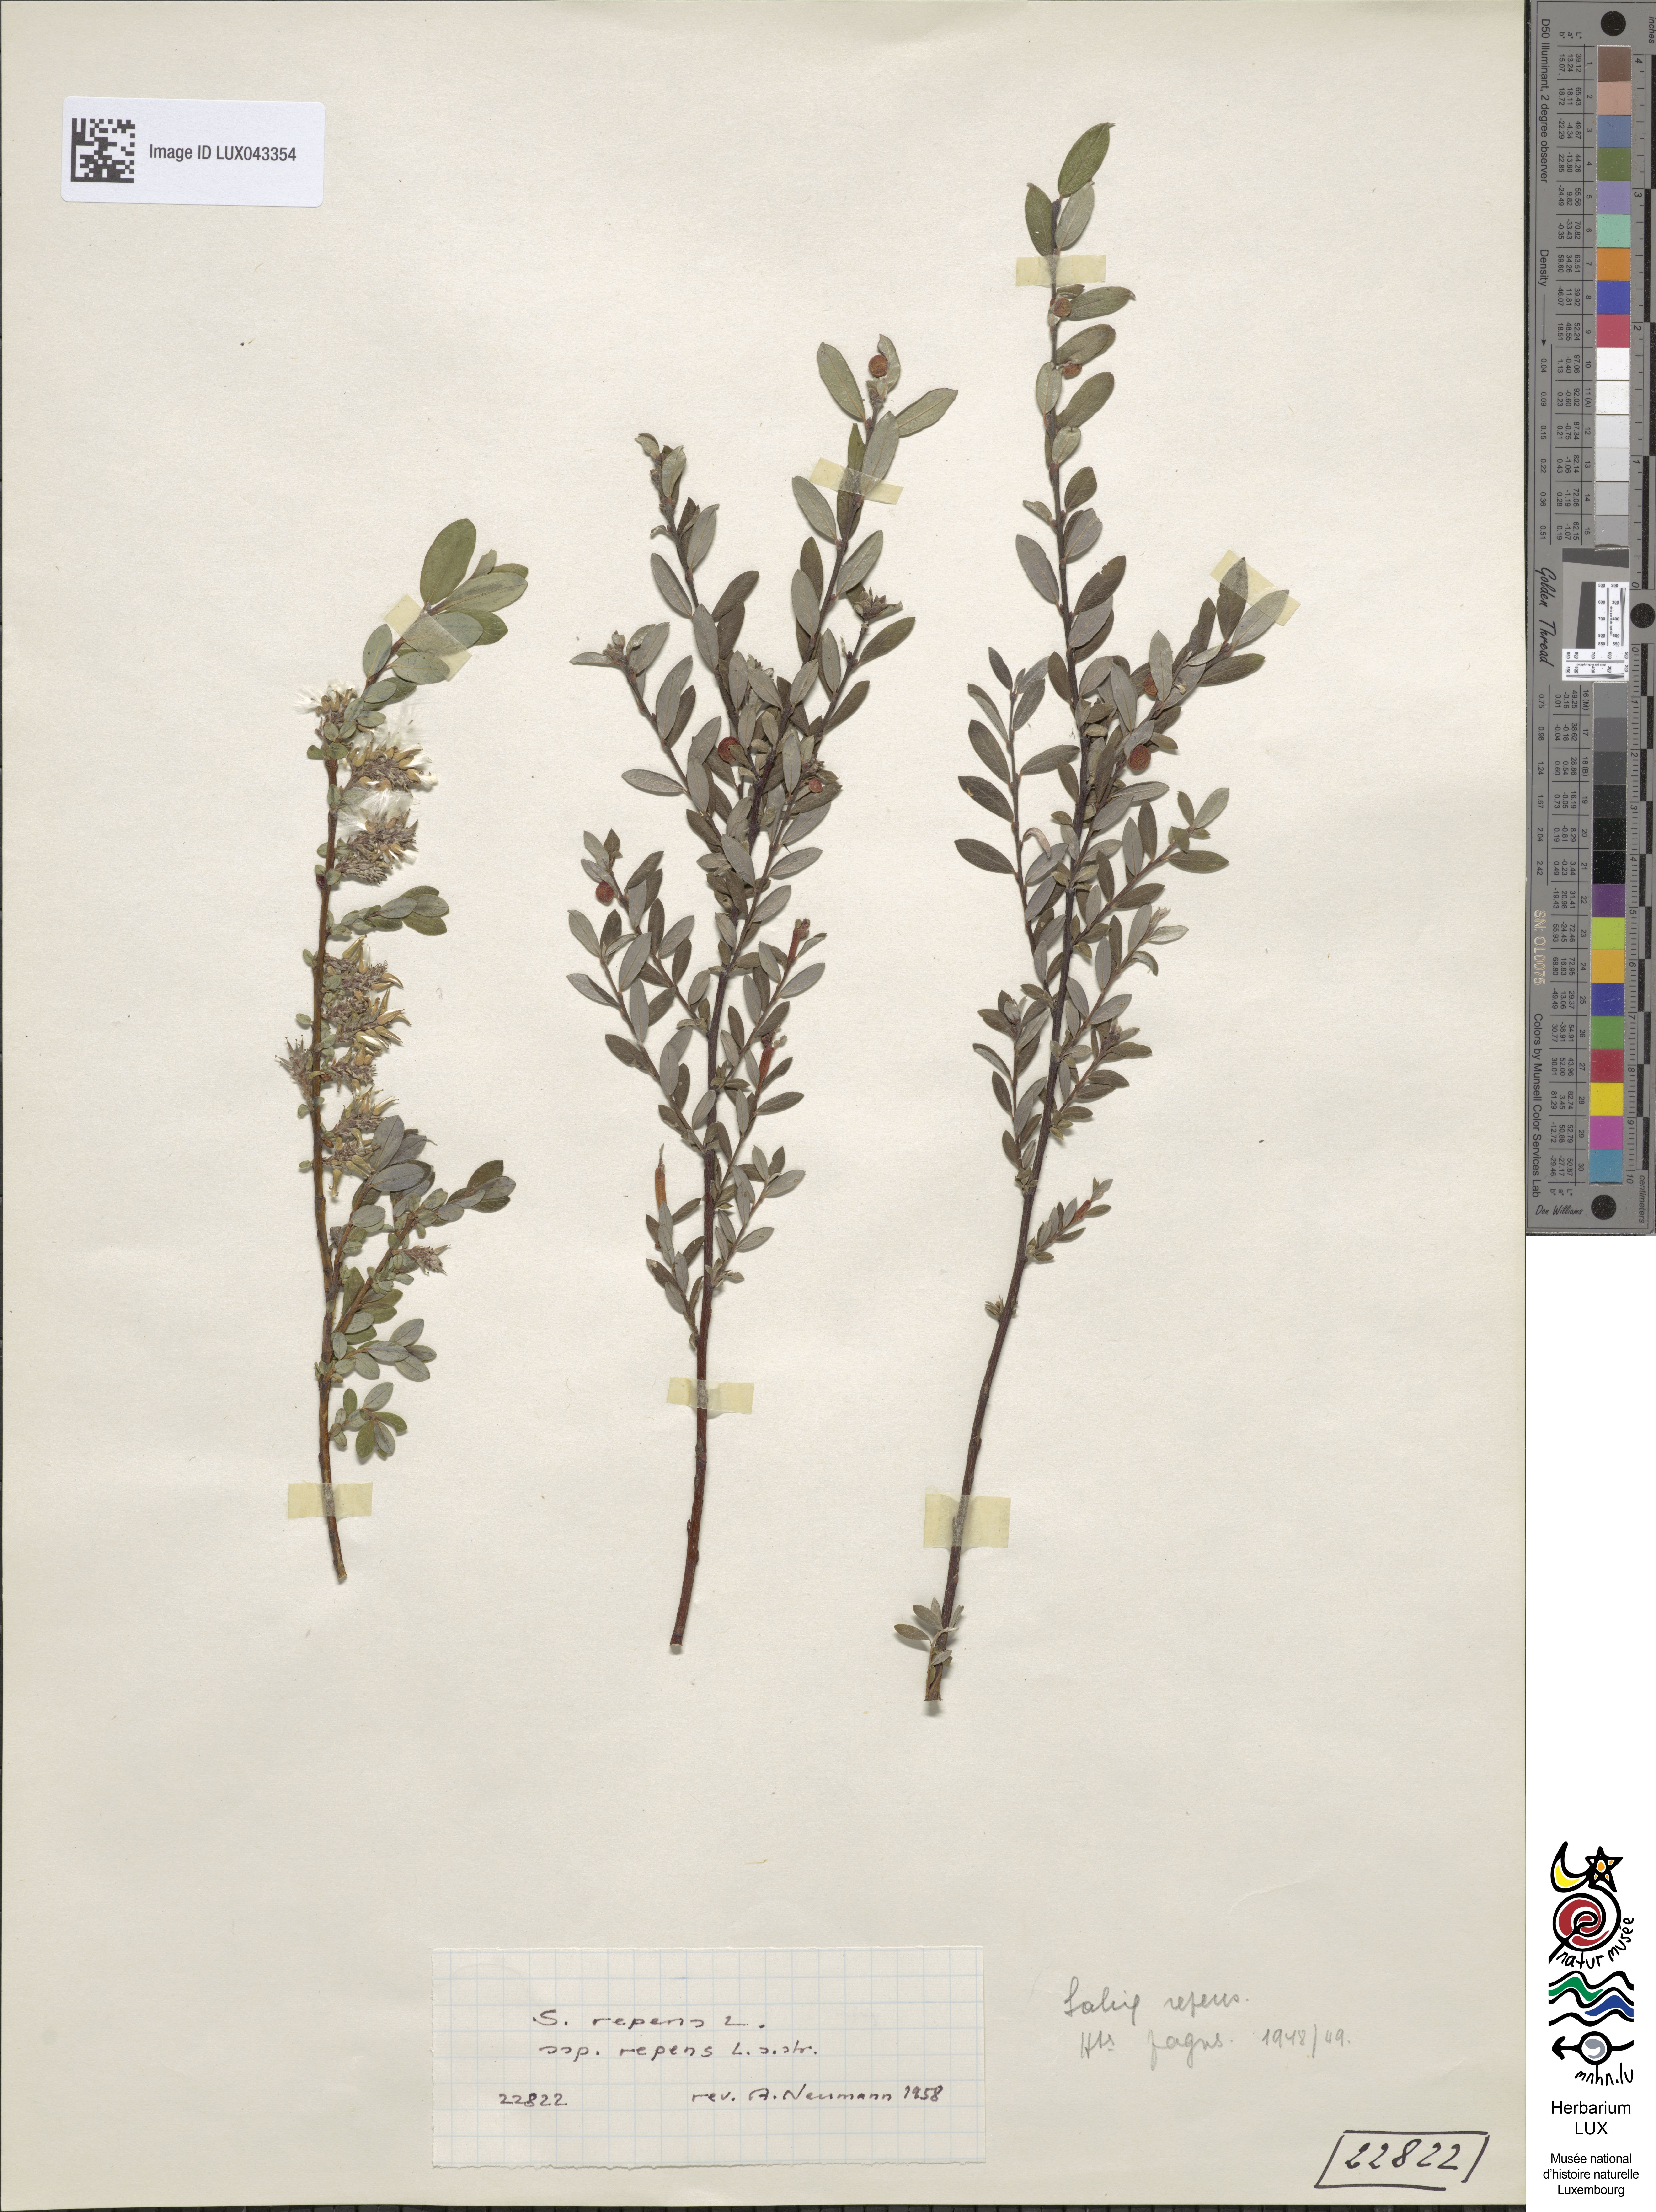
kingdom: Plantae
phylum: Tracheophyta
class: Magnoliopsida
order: Malpighiales
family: Salicaceae
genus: Salix
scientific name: Salix repens
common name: Creeping willow
